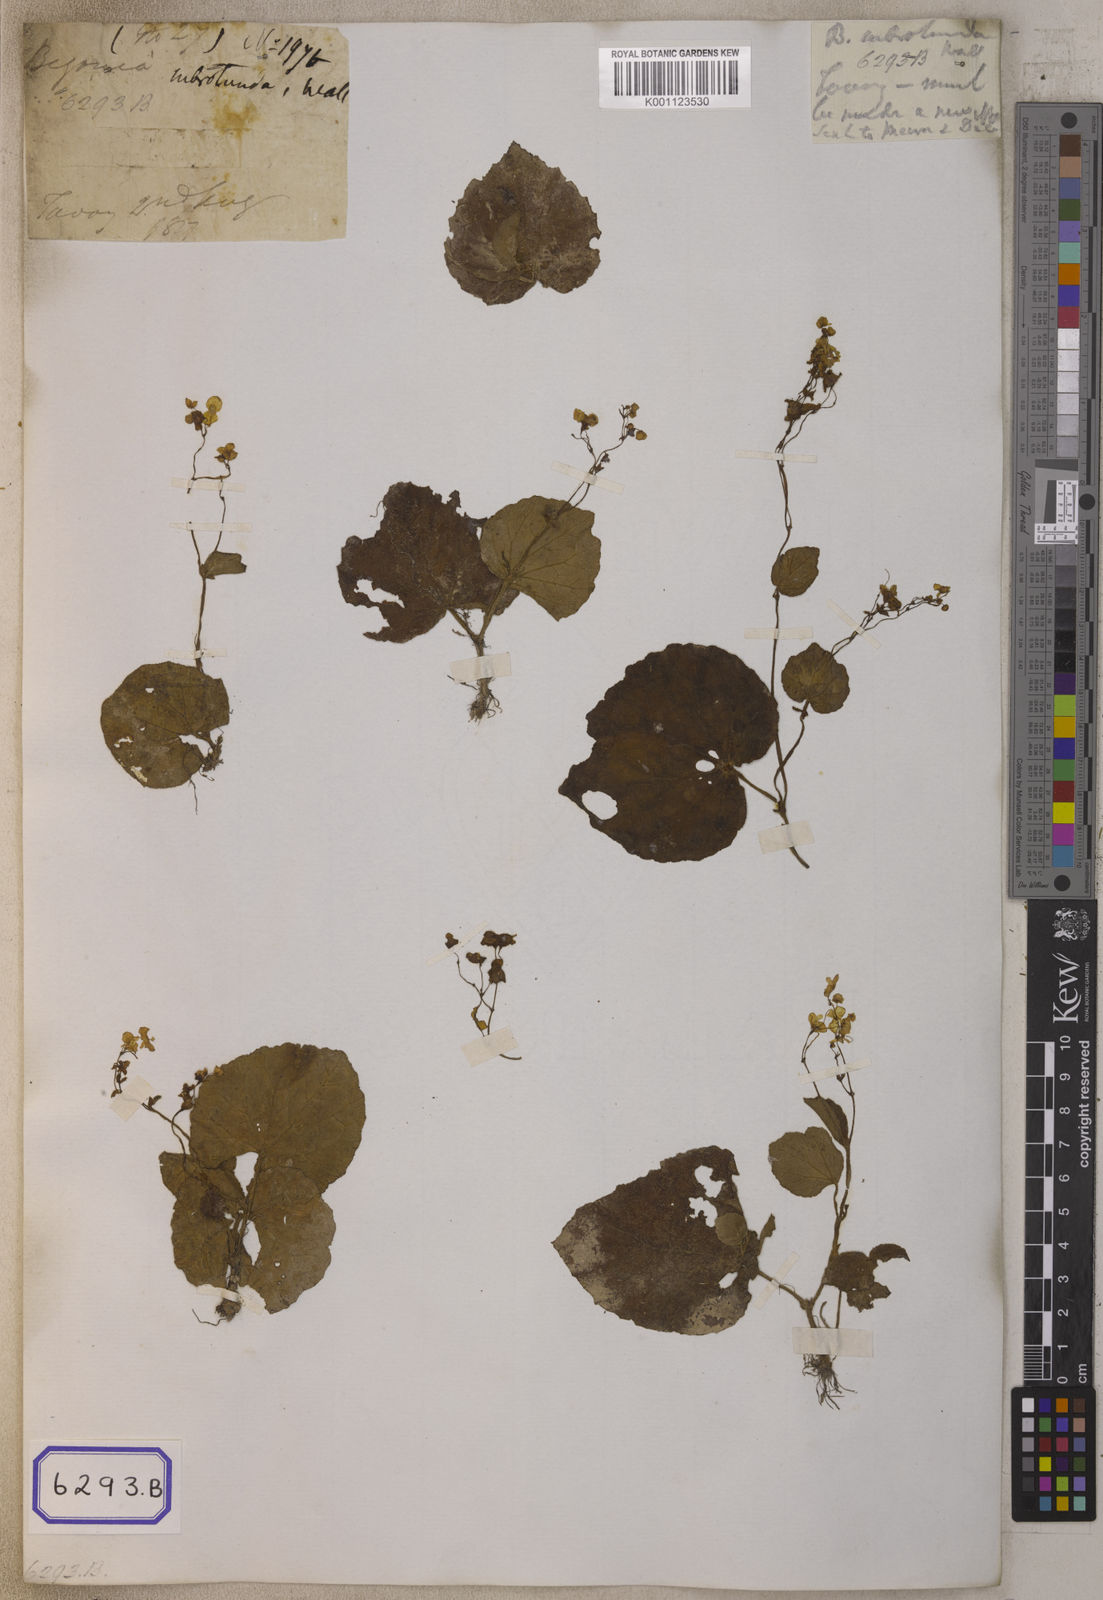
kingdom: Plantae
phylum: Tracheophyta
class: Magnoliopsida
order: Cucurbitales
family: Begoniaceae
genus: Begonia
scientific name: Begonia sinuata
